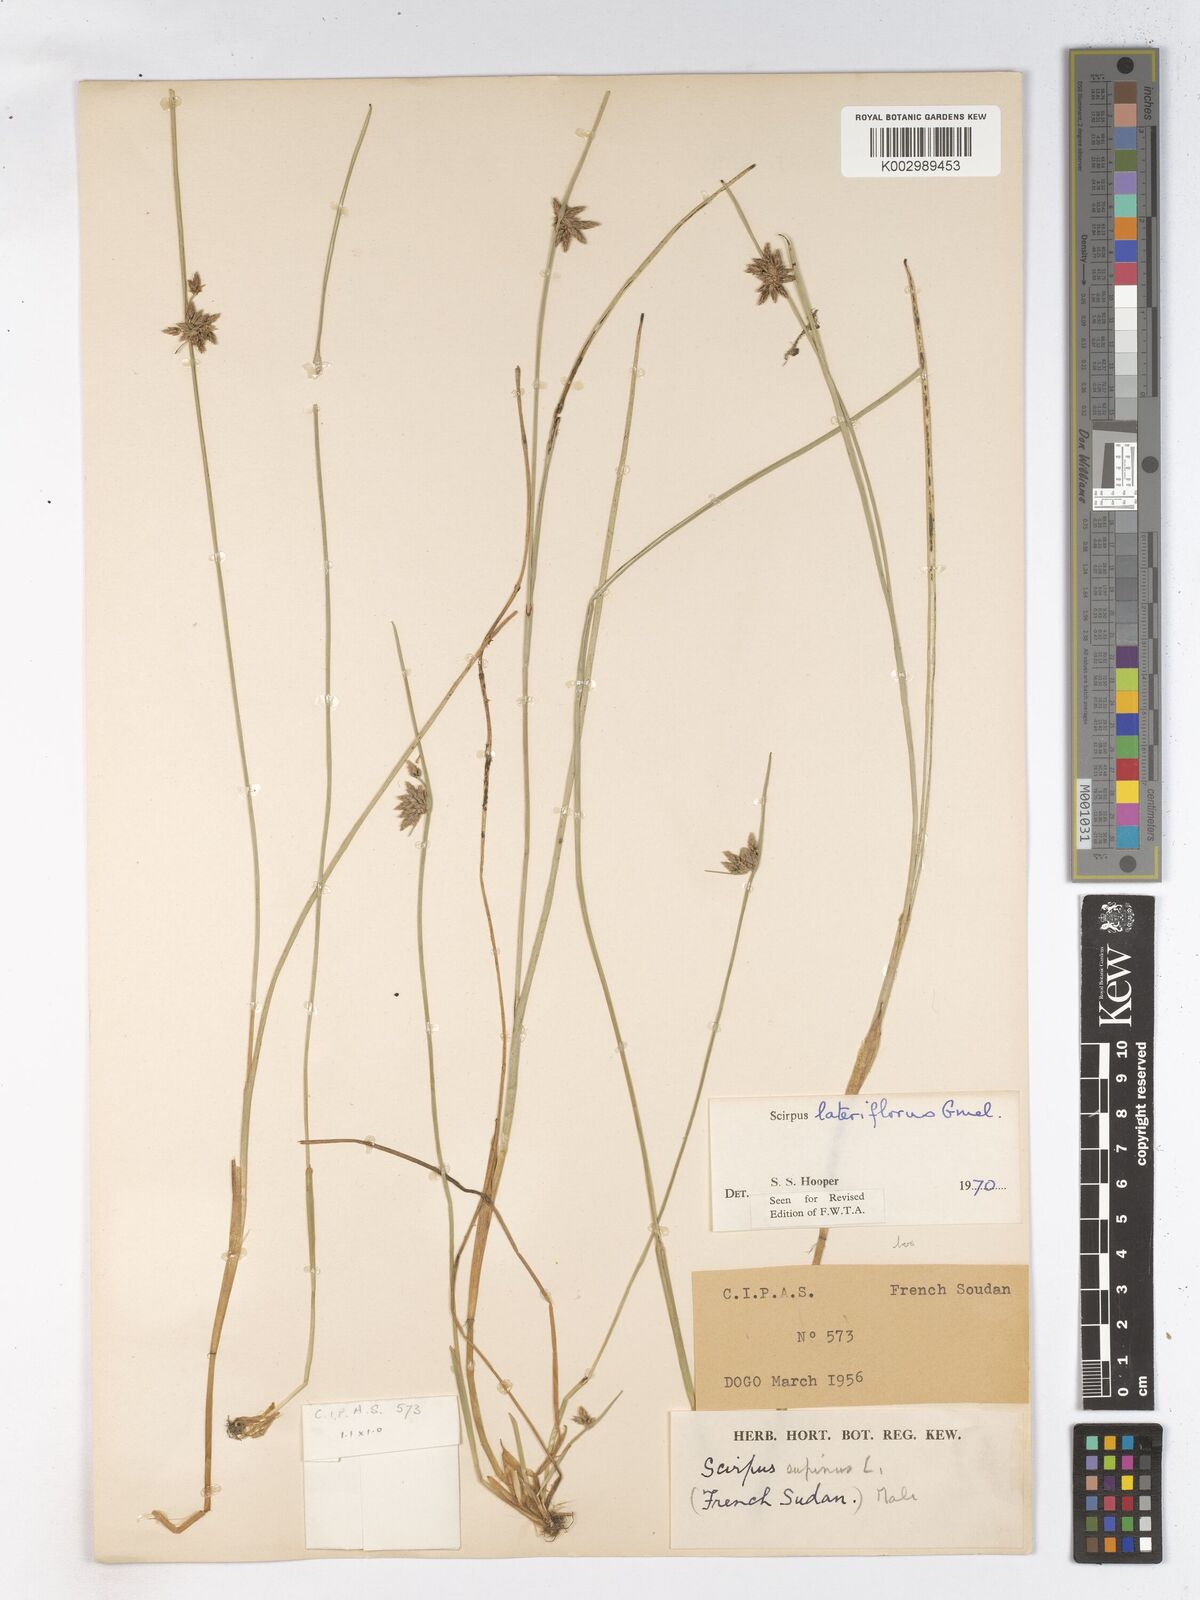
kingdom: Plantae
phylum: Tracheophyta
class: Liliopsida
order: Poales
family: Cyperaceae
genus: Schoenoplectiella
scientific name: Schoenoplectiella lateriflora
